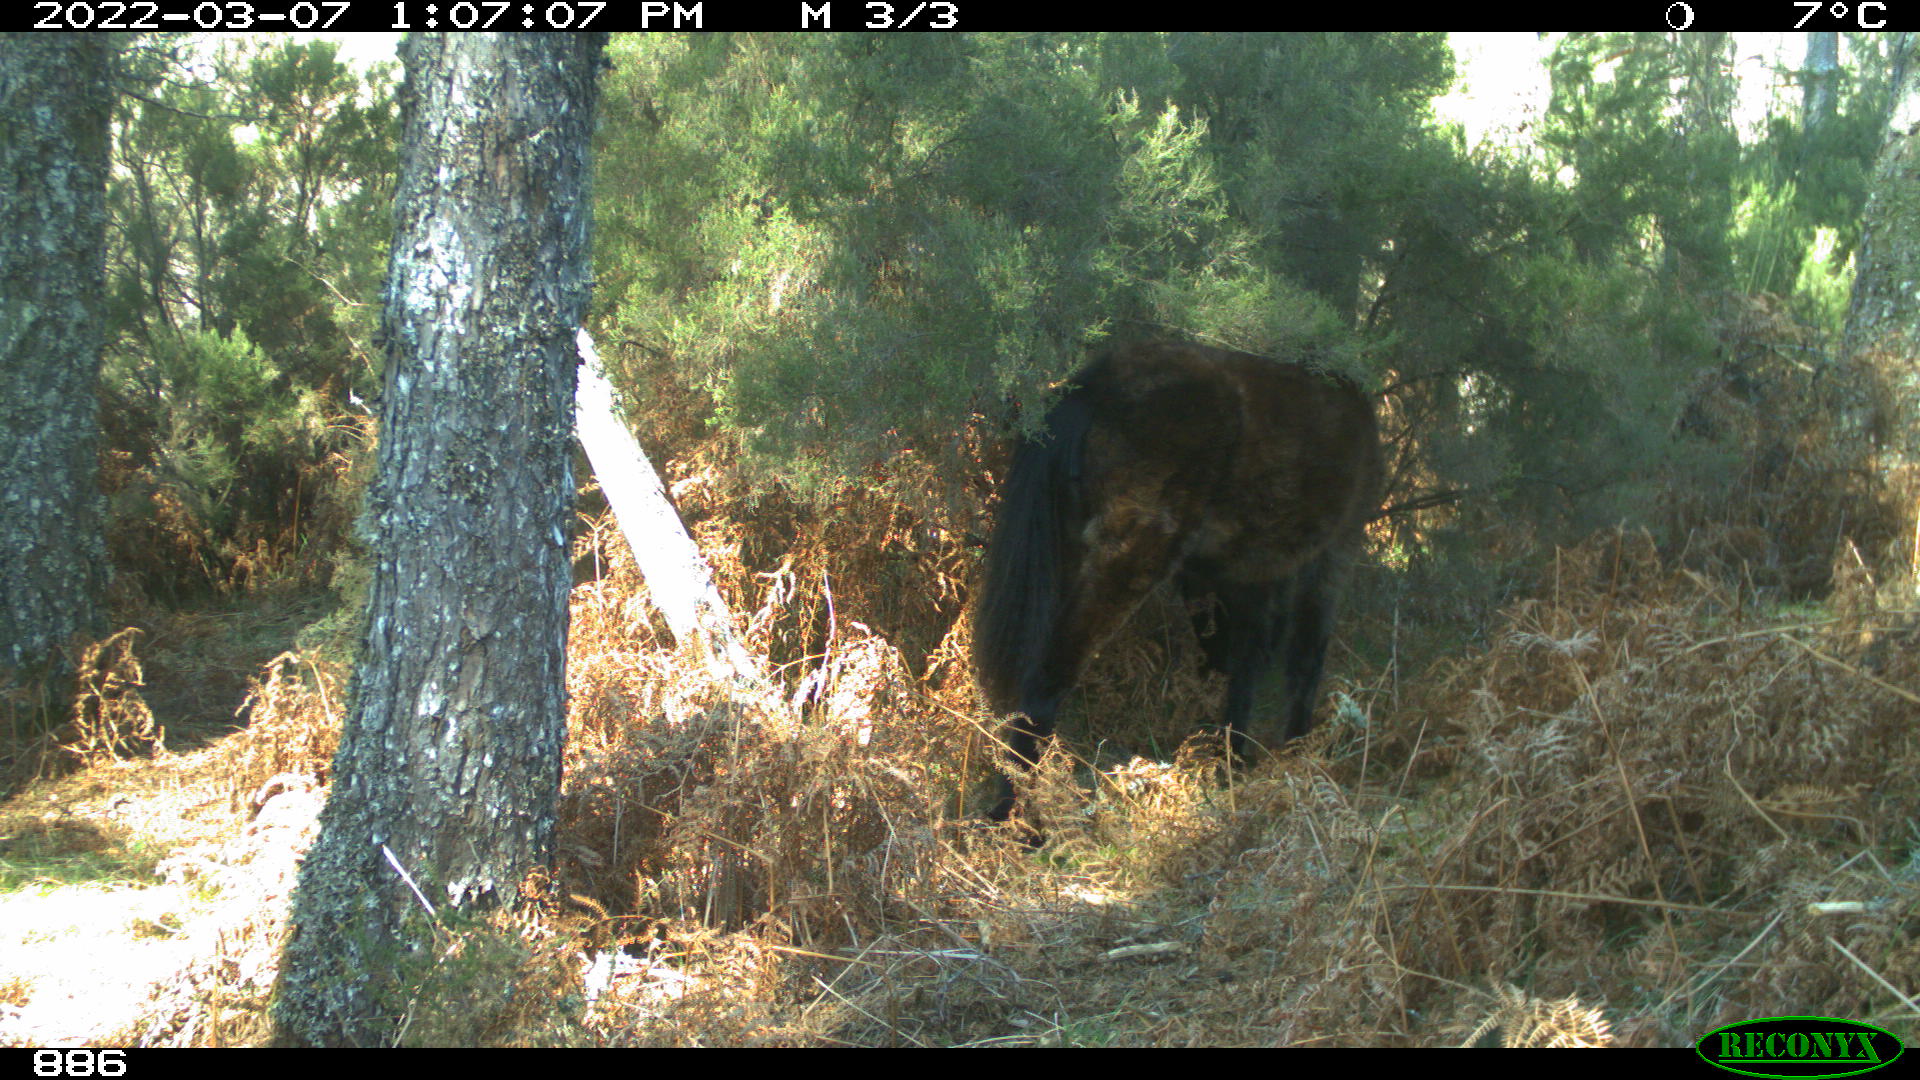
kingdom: Animalia
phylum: Chordata
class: Mammalia
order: Perissodactyla
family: Equidae
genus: Equus
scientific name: Equus caballus
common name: Horse
